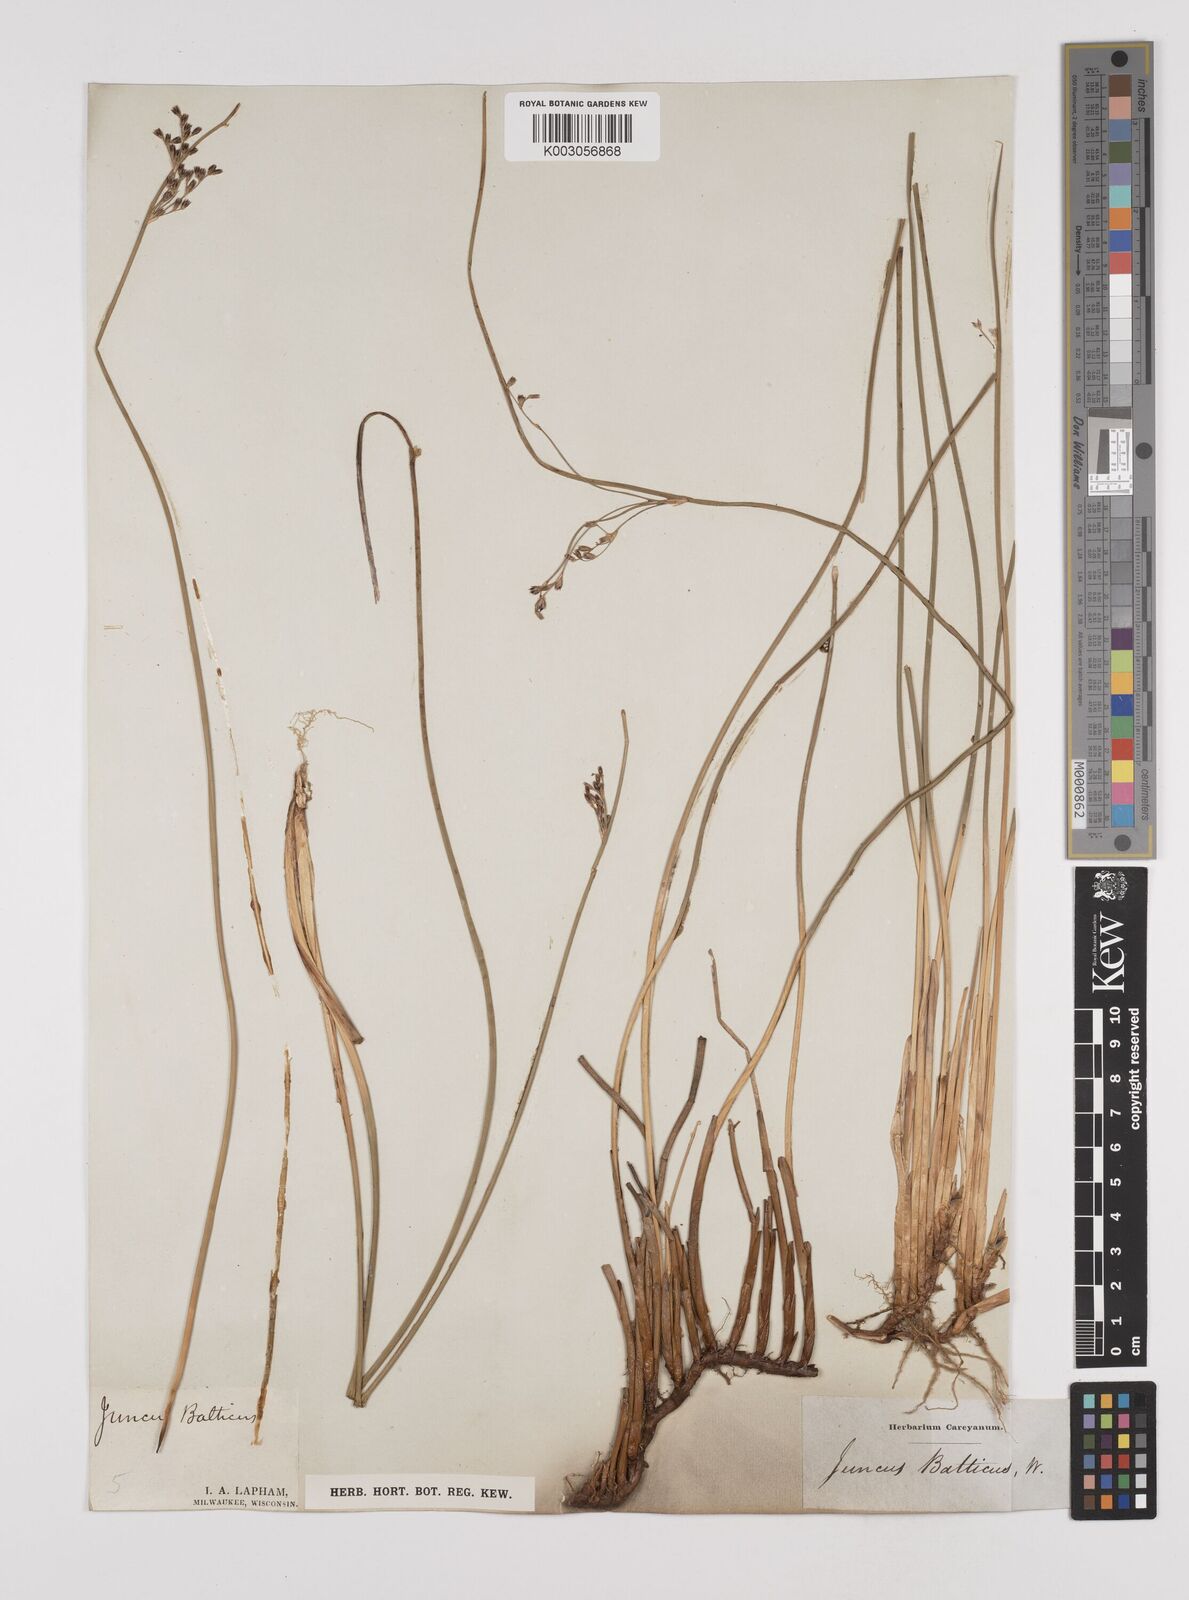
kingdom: Plantae
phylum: Tracheophyta
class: Liliopsida
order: Poales
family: Juncaceae
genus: Juncus
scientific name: Juncus balticus
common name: Baltic rush
